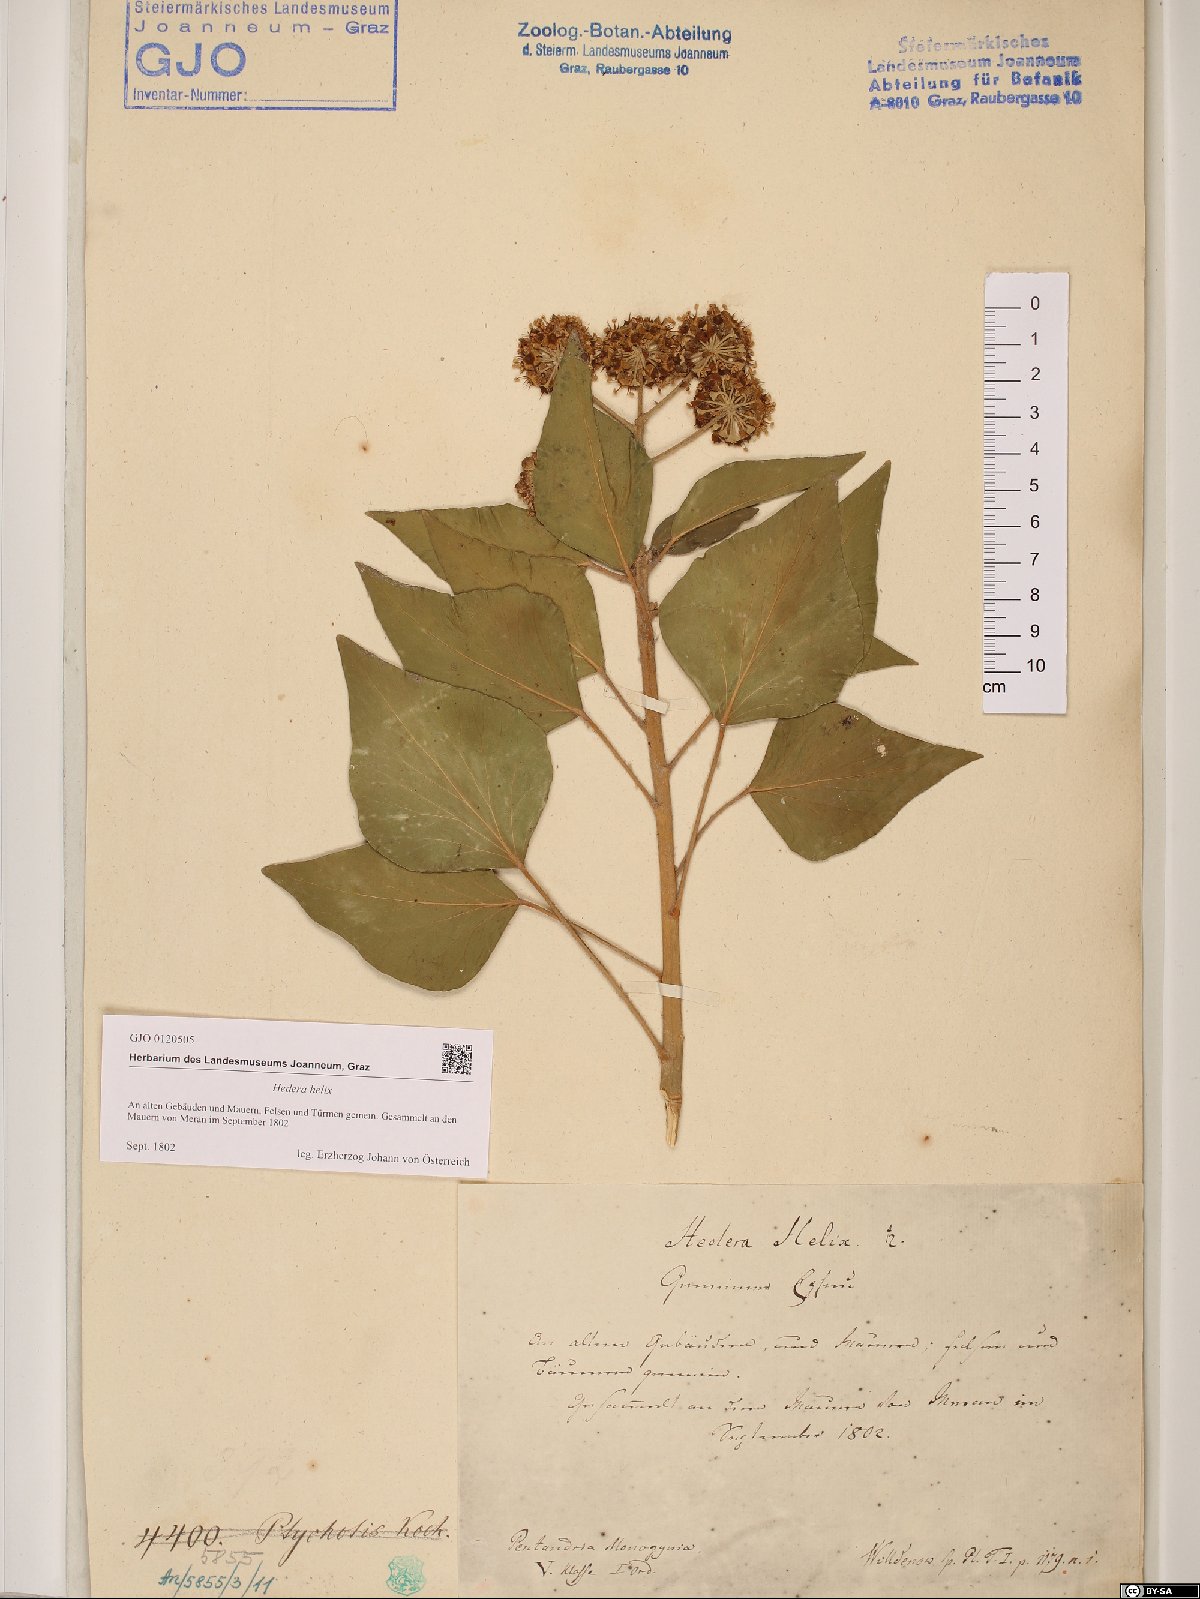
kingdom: Plantae
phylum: Tracheophyta
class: Magnoliopsida
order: Apiales
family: Araliaceae
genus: Hedera
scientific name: Hedera helix
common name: Ivy
